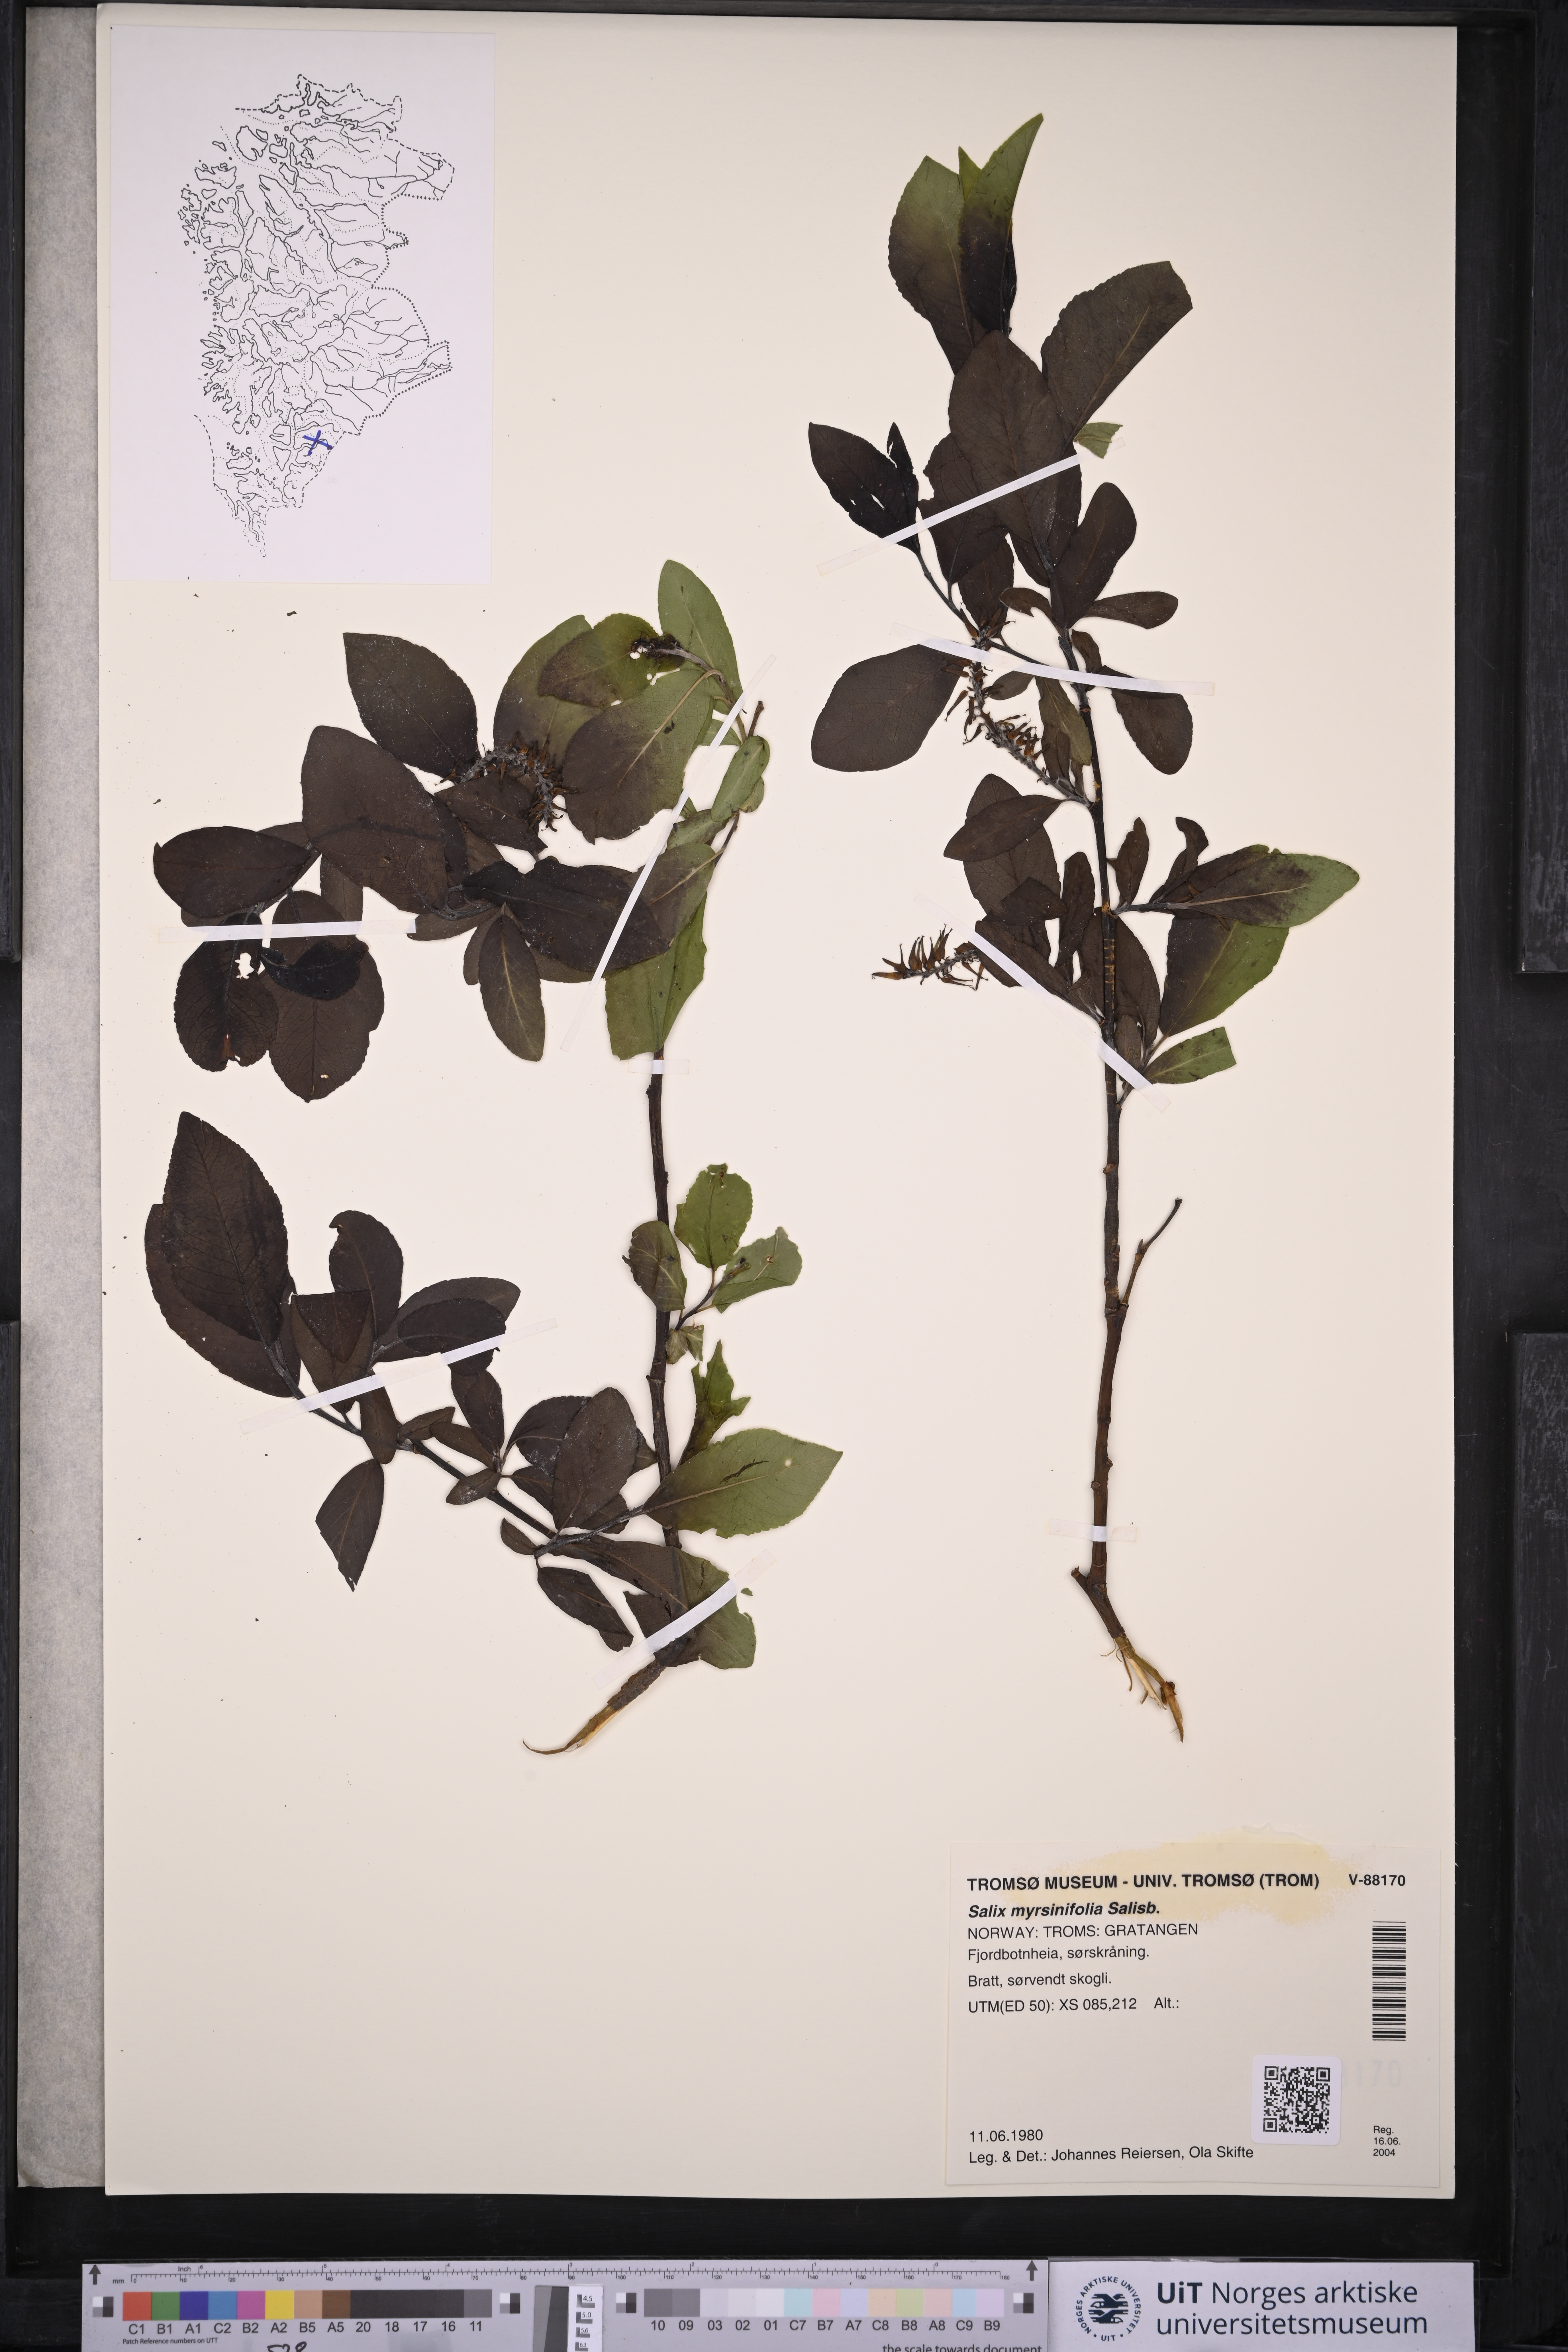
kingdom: Plantae
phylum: Tracheophyta
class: Magnoliopsida
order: Malpighiales
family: Salicaceae
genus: Salix
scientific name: Salix myrsinifolia
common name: Dark-leaved willow
